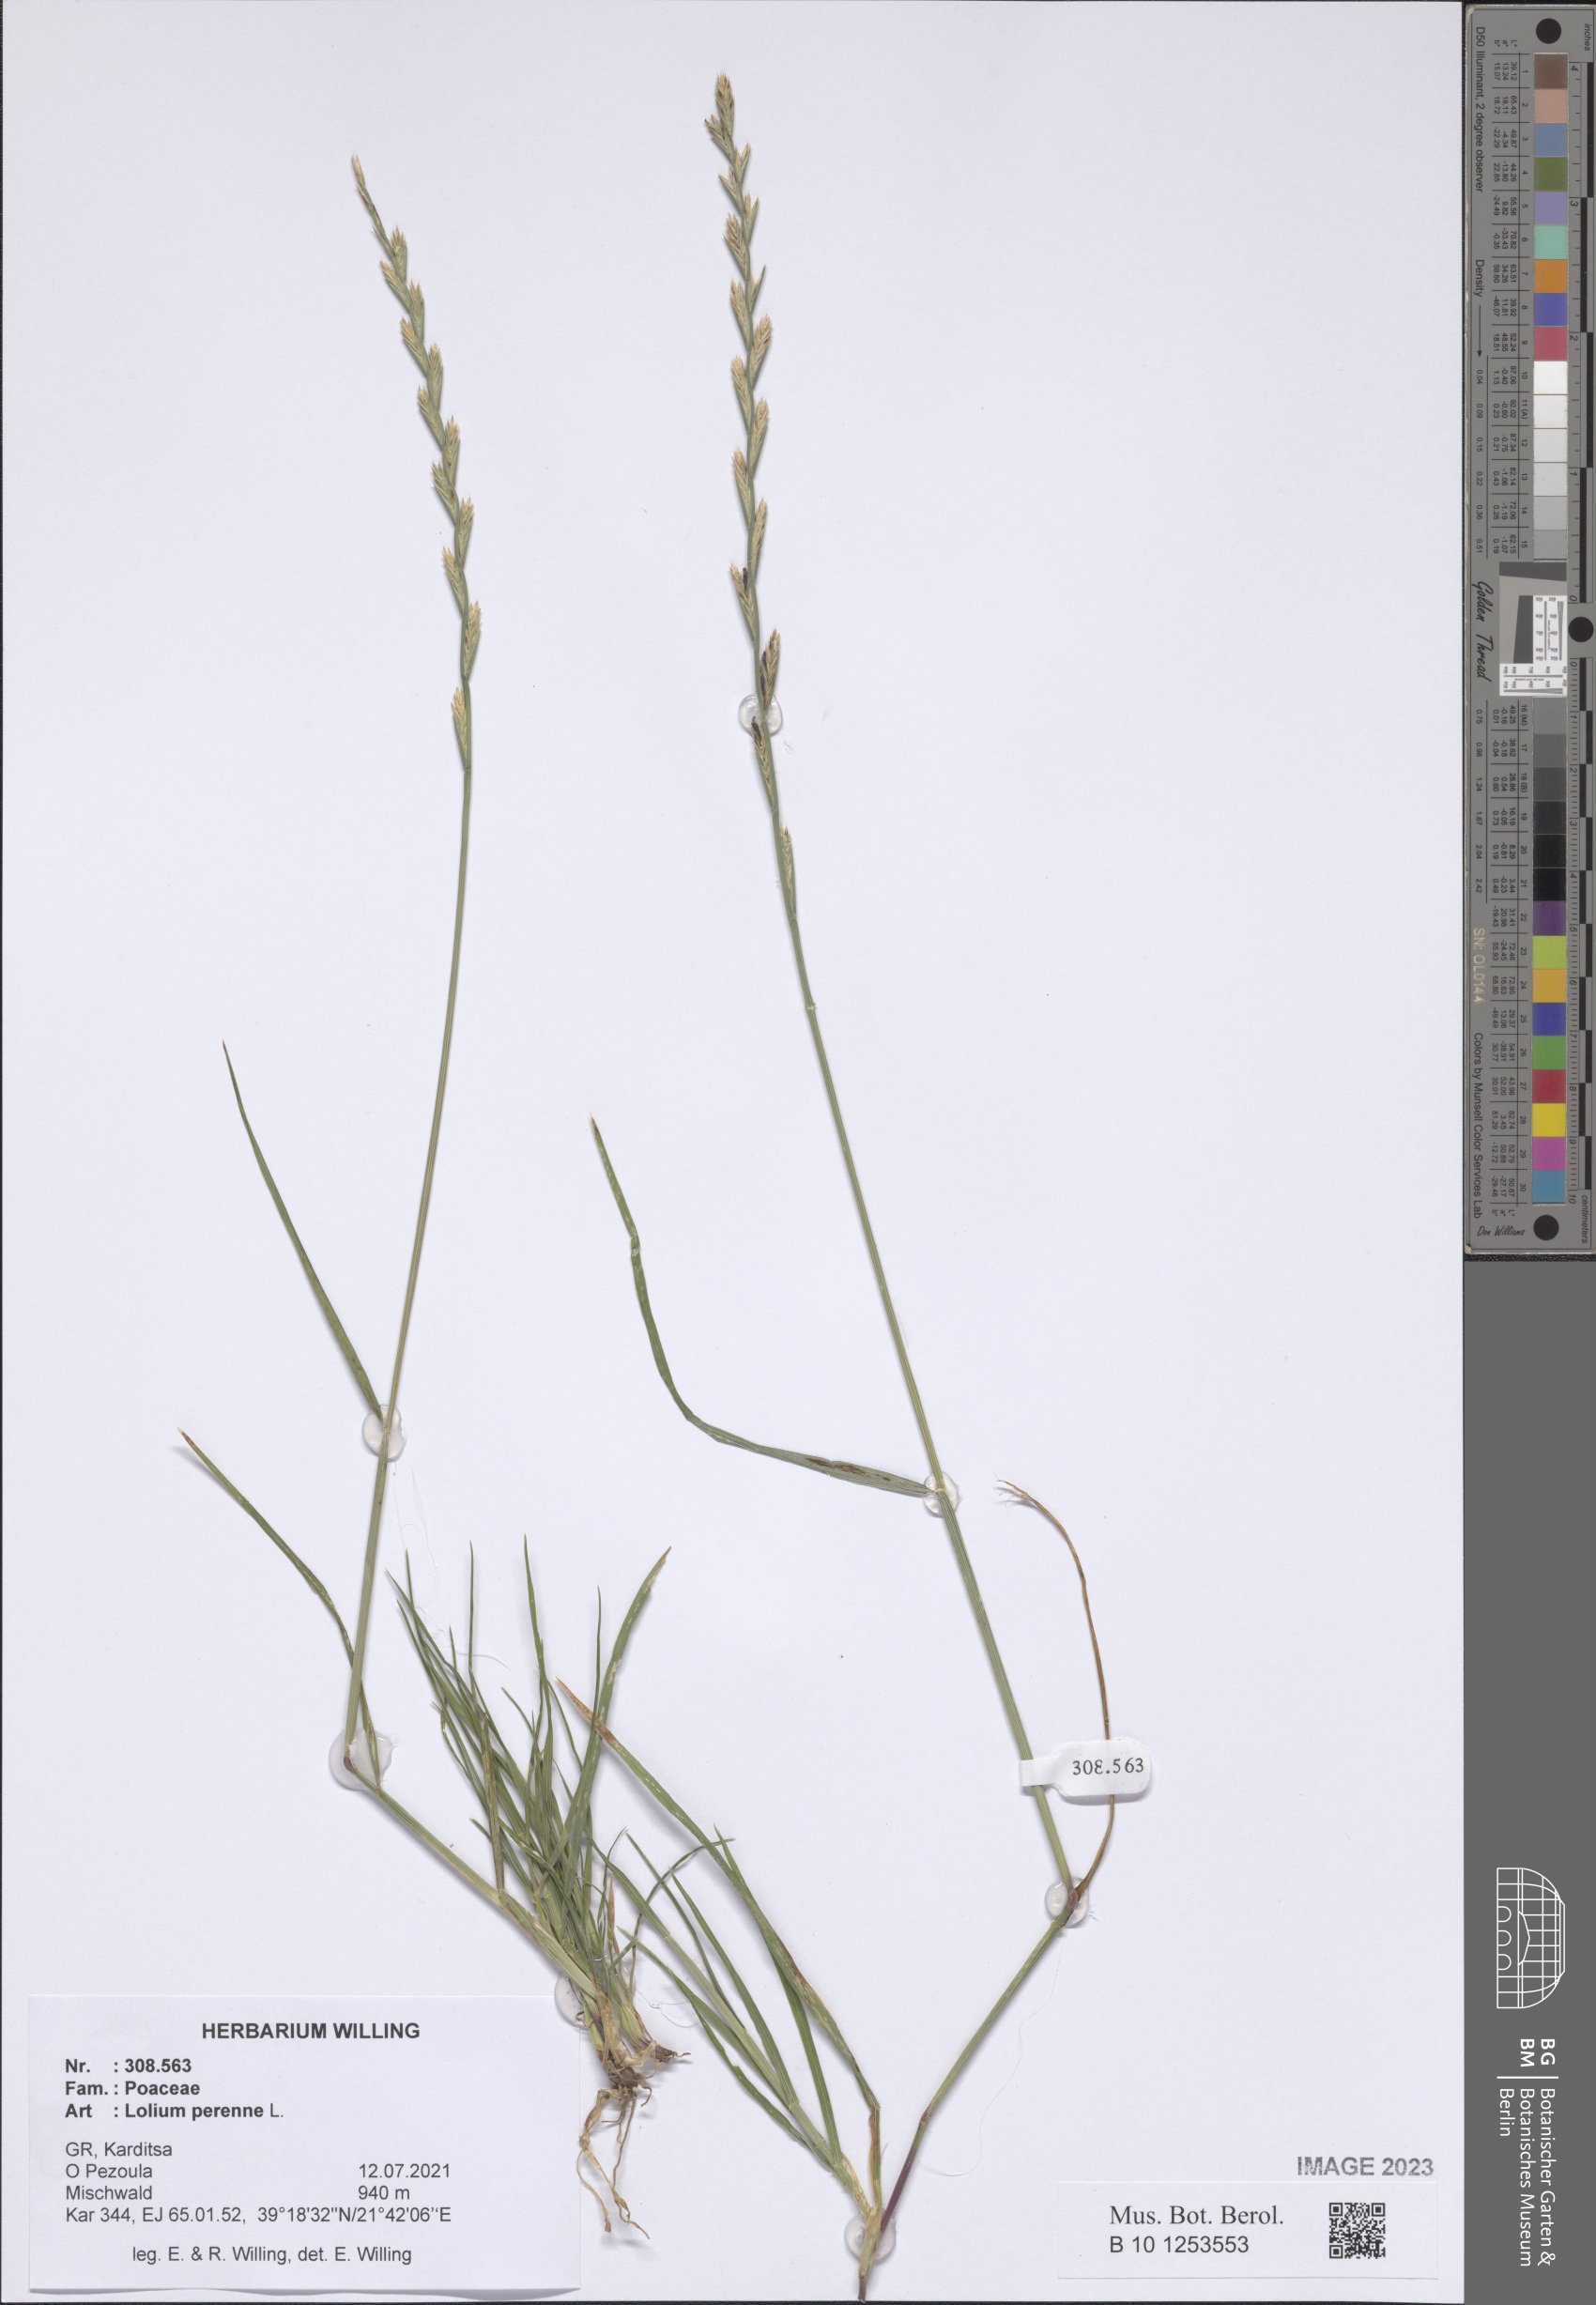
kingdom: Plantae
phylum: Tracheophyta
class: Liliopsida
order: Poales
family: Poaceae
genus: Lolium
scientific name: Lolium perenne
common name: Perennial ryegrass
